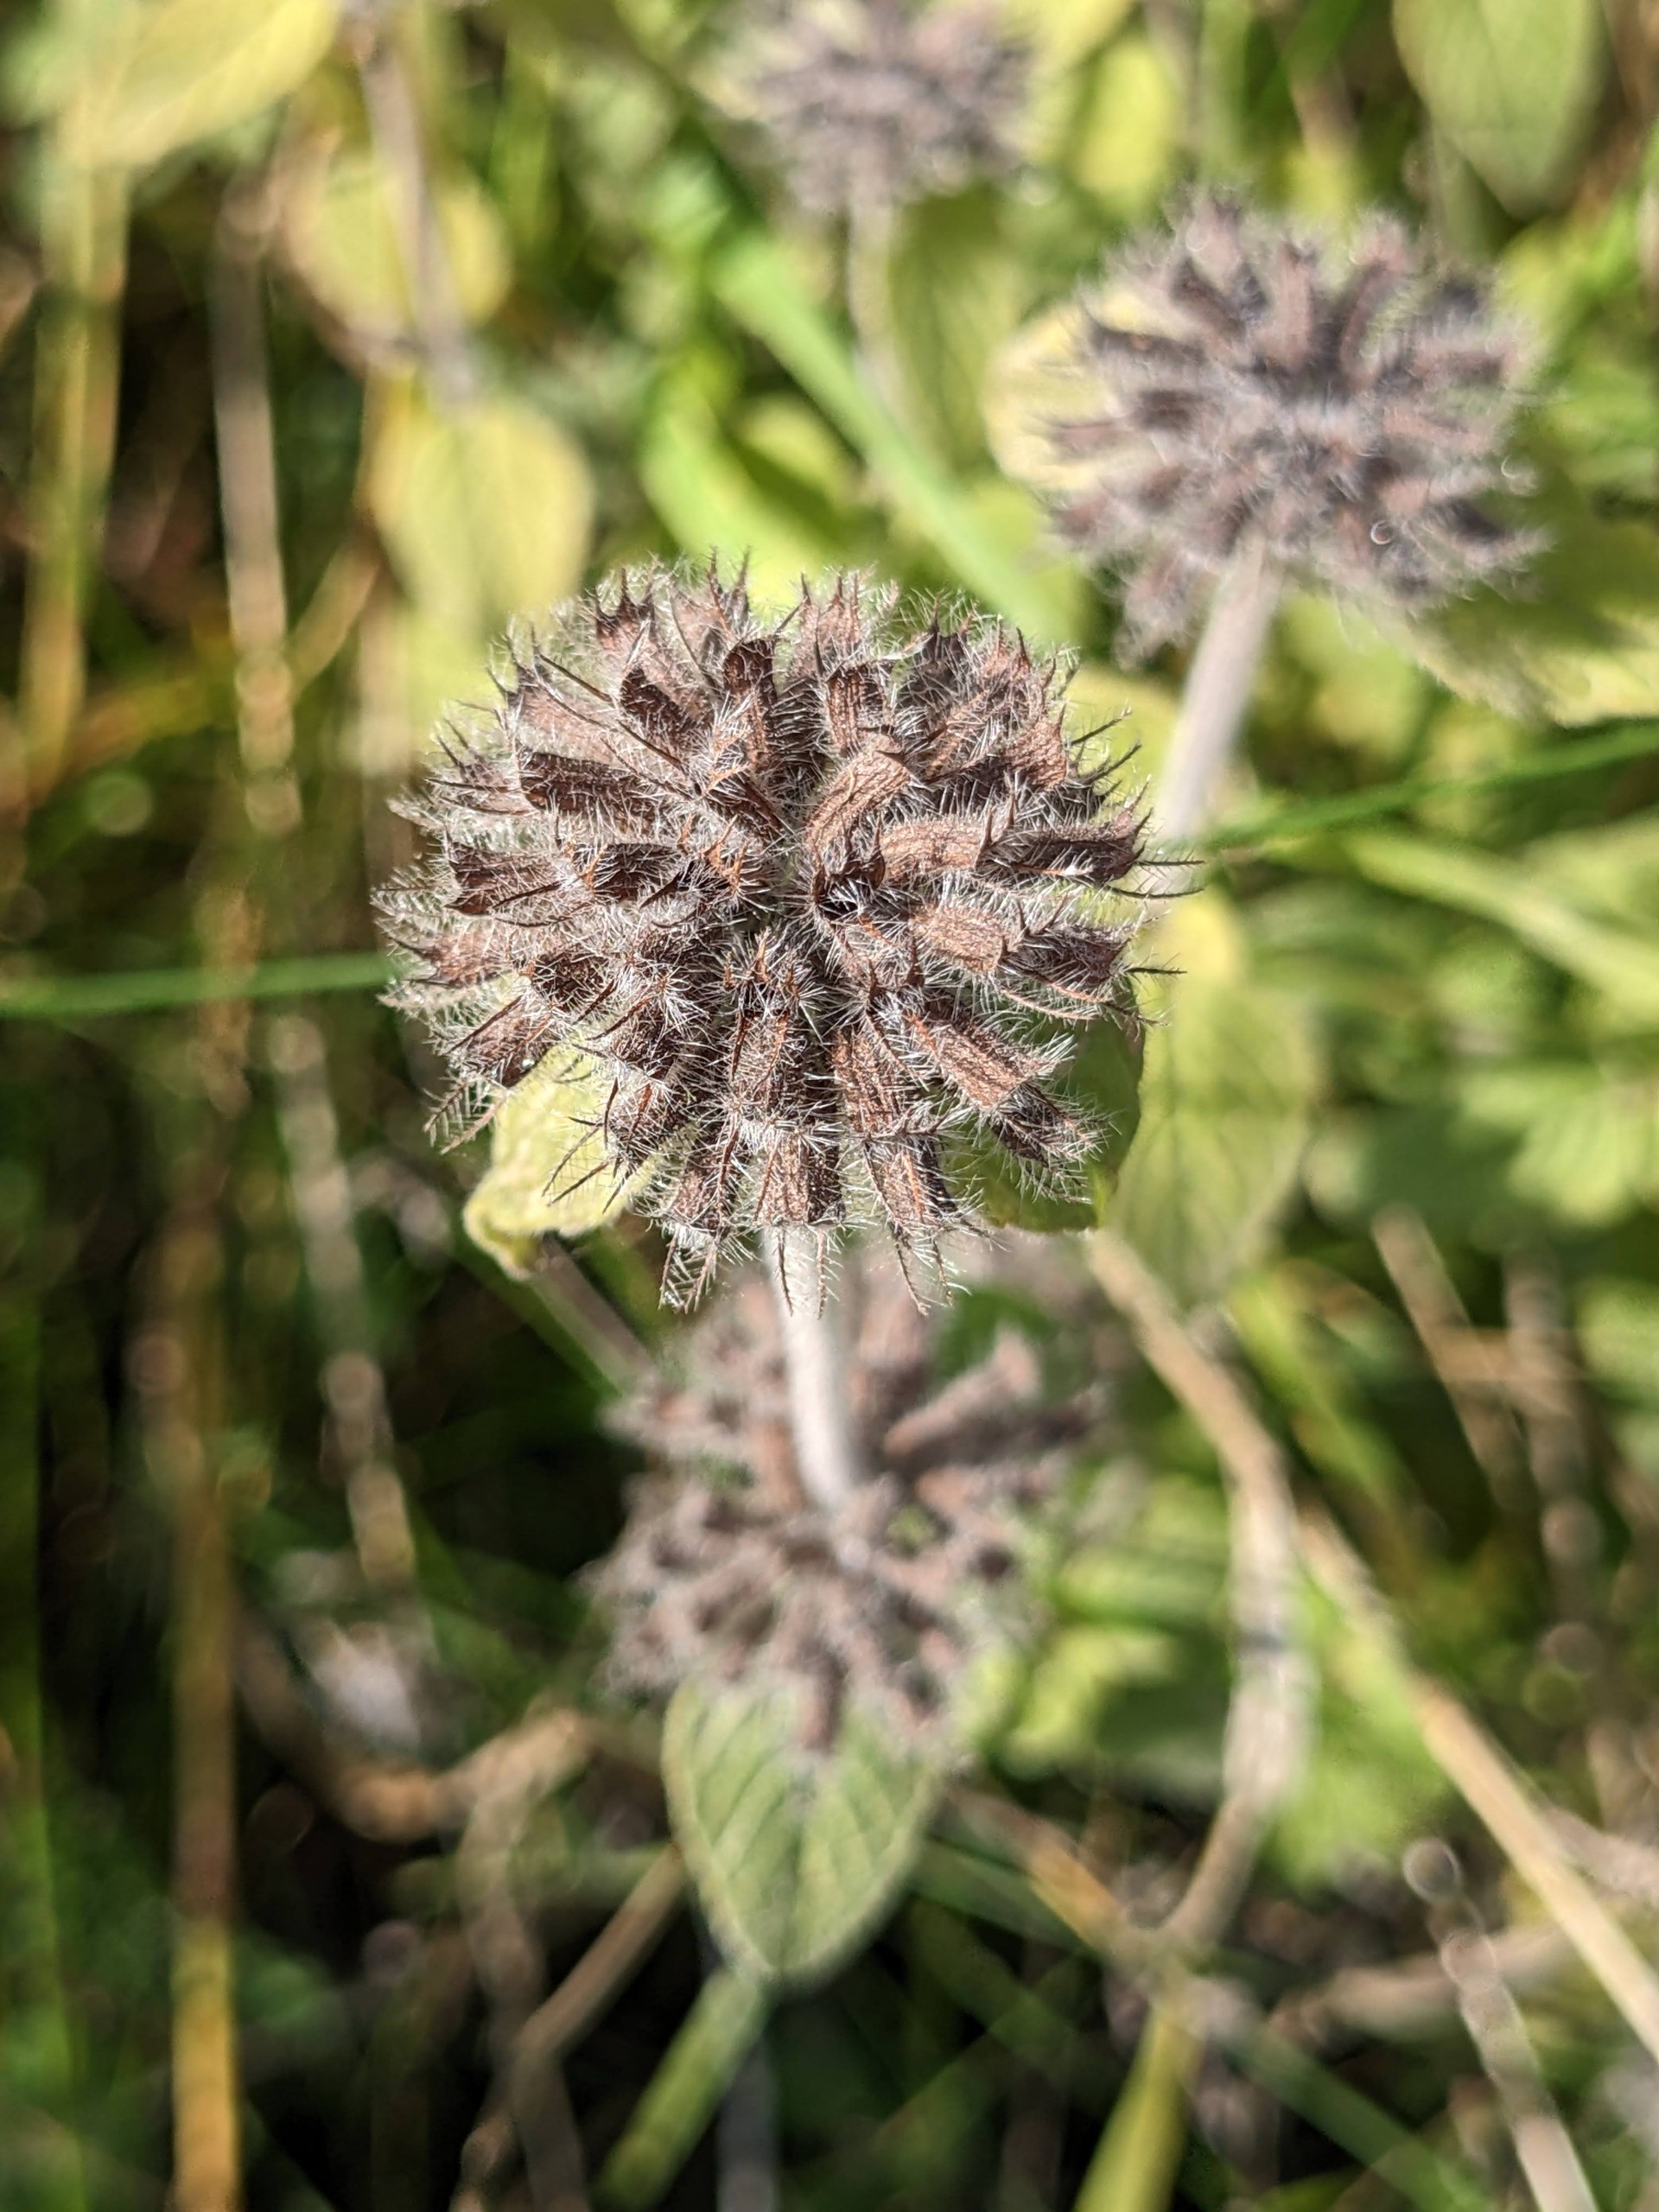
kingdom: Plantae
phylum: Tracheophyta
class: Magnoliopsida
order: Lamiales
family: Lamiaceae
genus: Clinopodium
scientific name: Clinopodium vulgare
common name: Kransbørste
